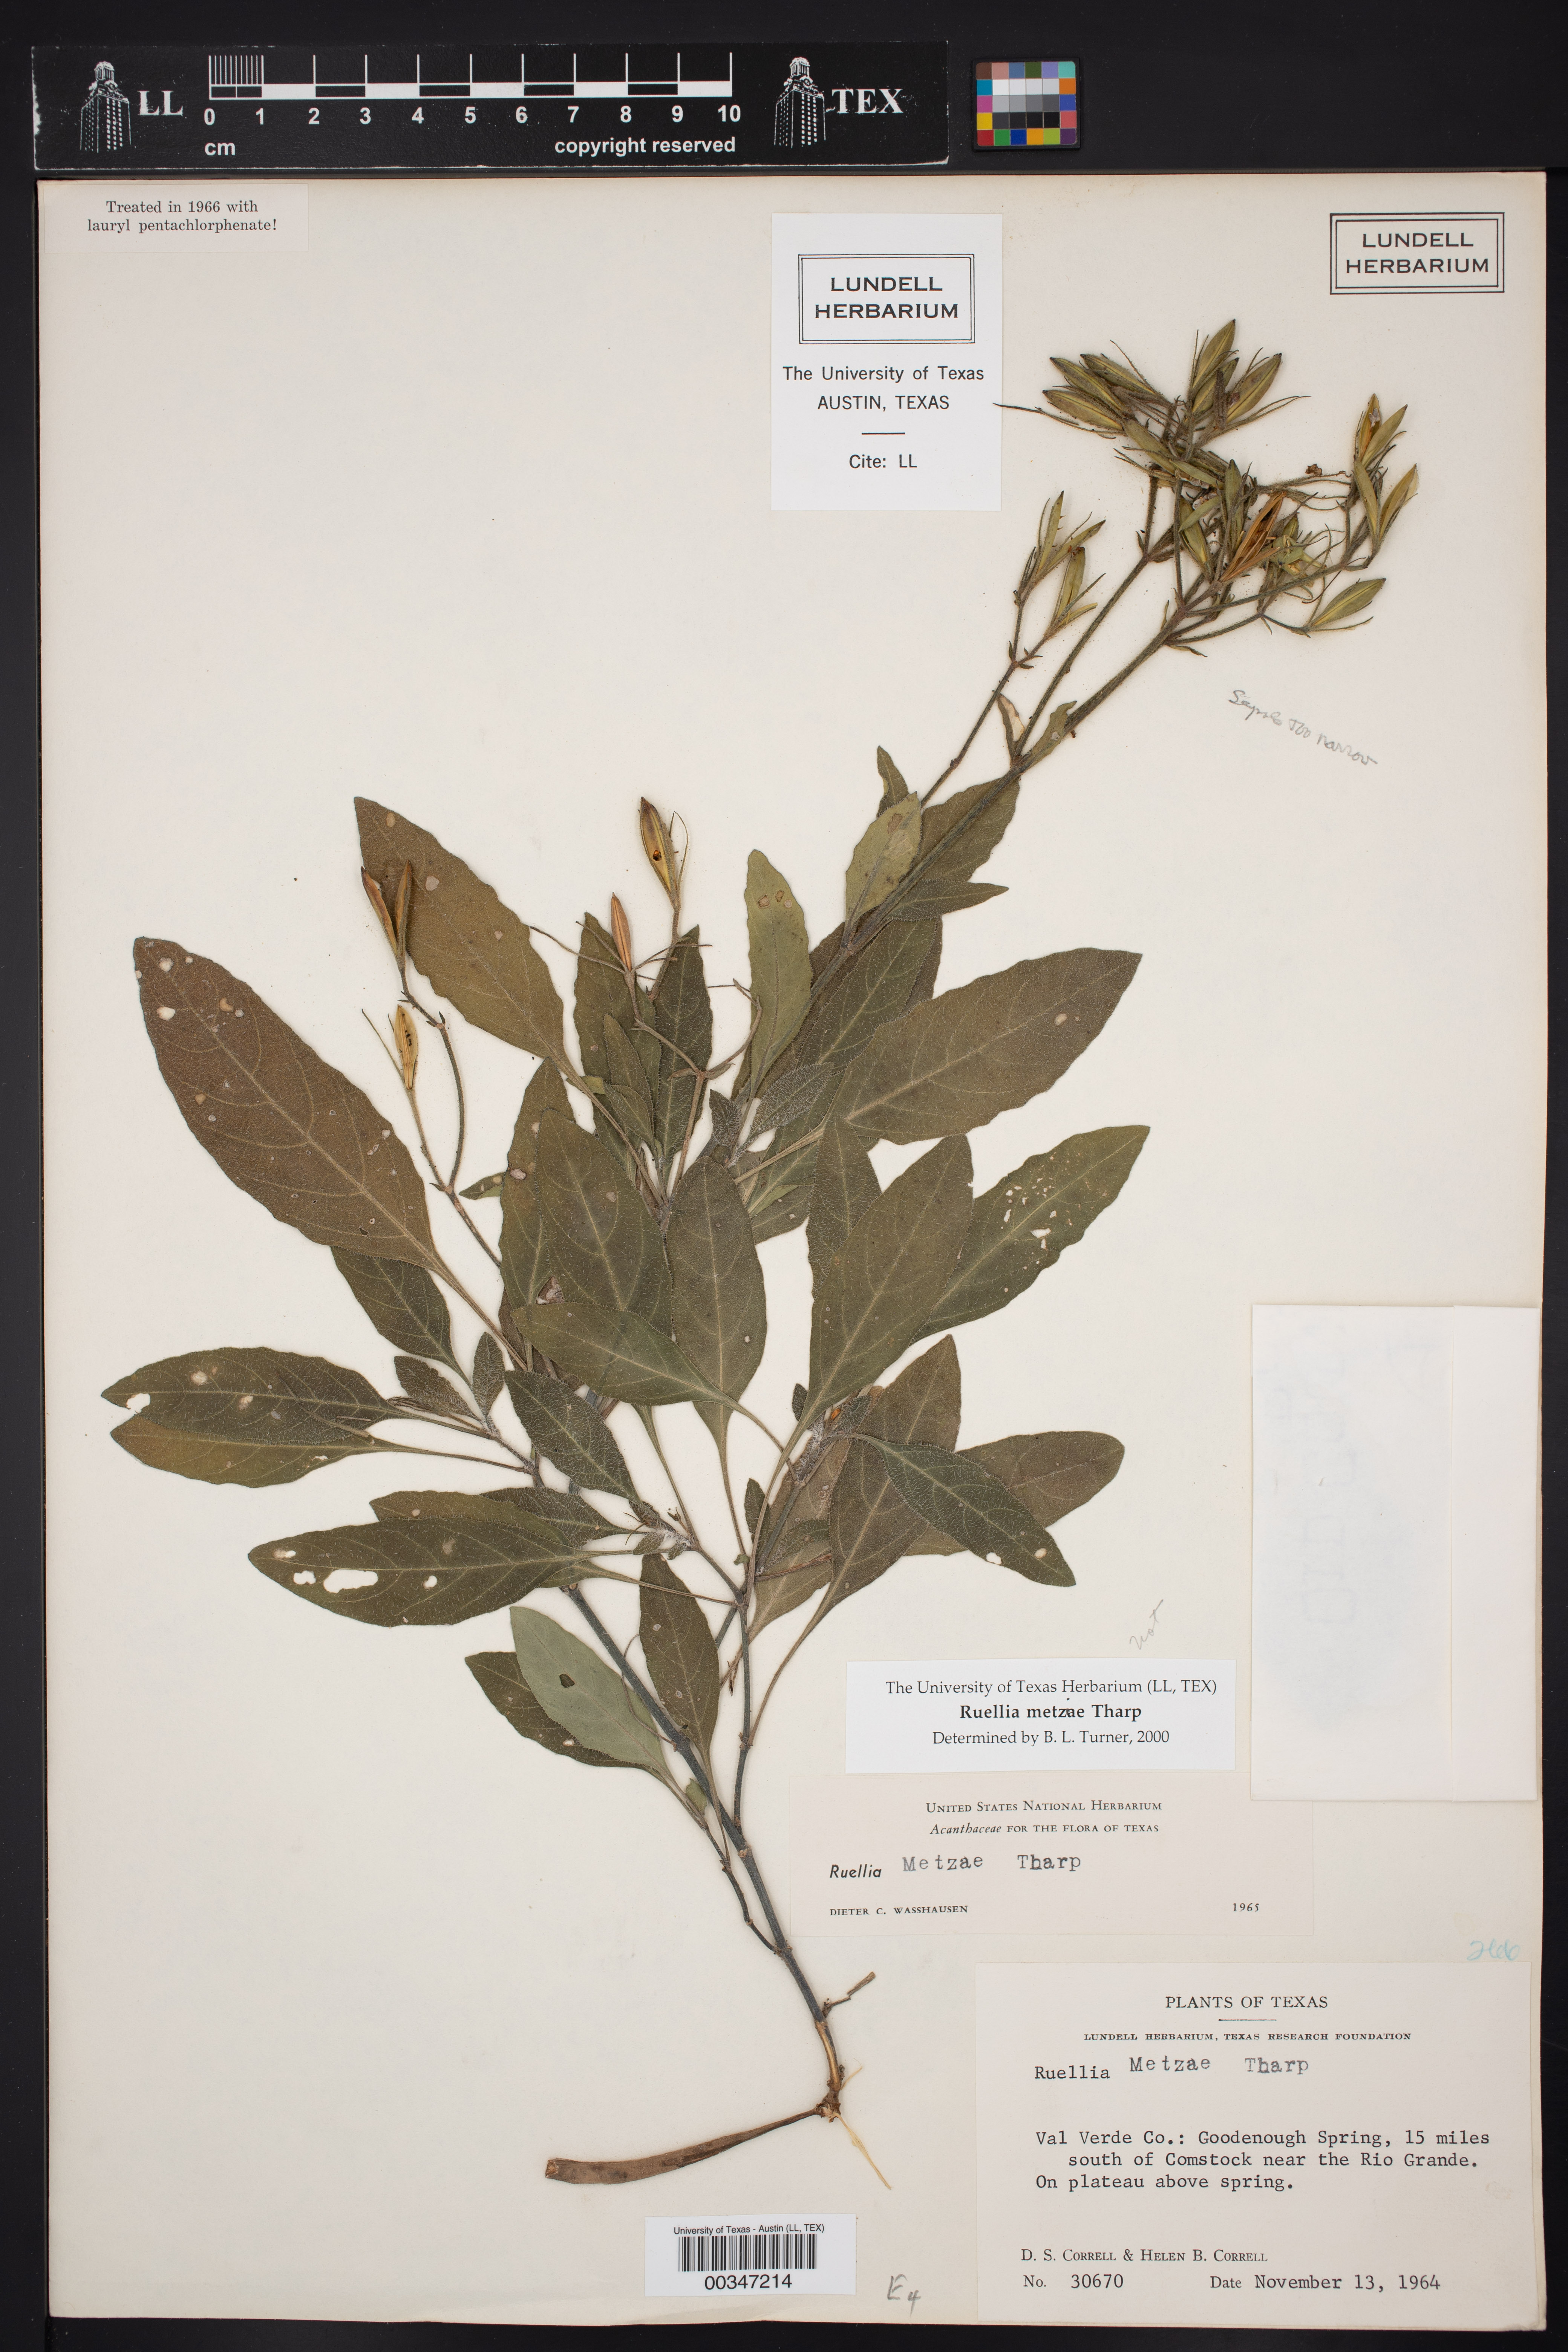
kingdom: Plantae
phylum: Tracheophyta
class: Magnoliopsida
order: Lamiales
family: Acanthaceae
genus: Ruellia
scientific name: Ruellia metziae
